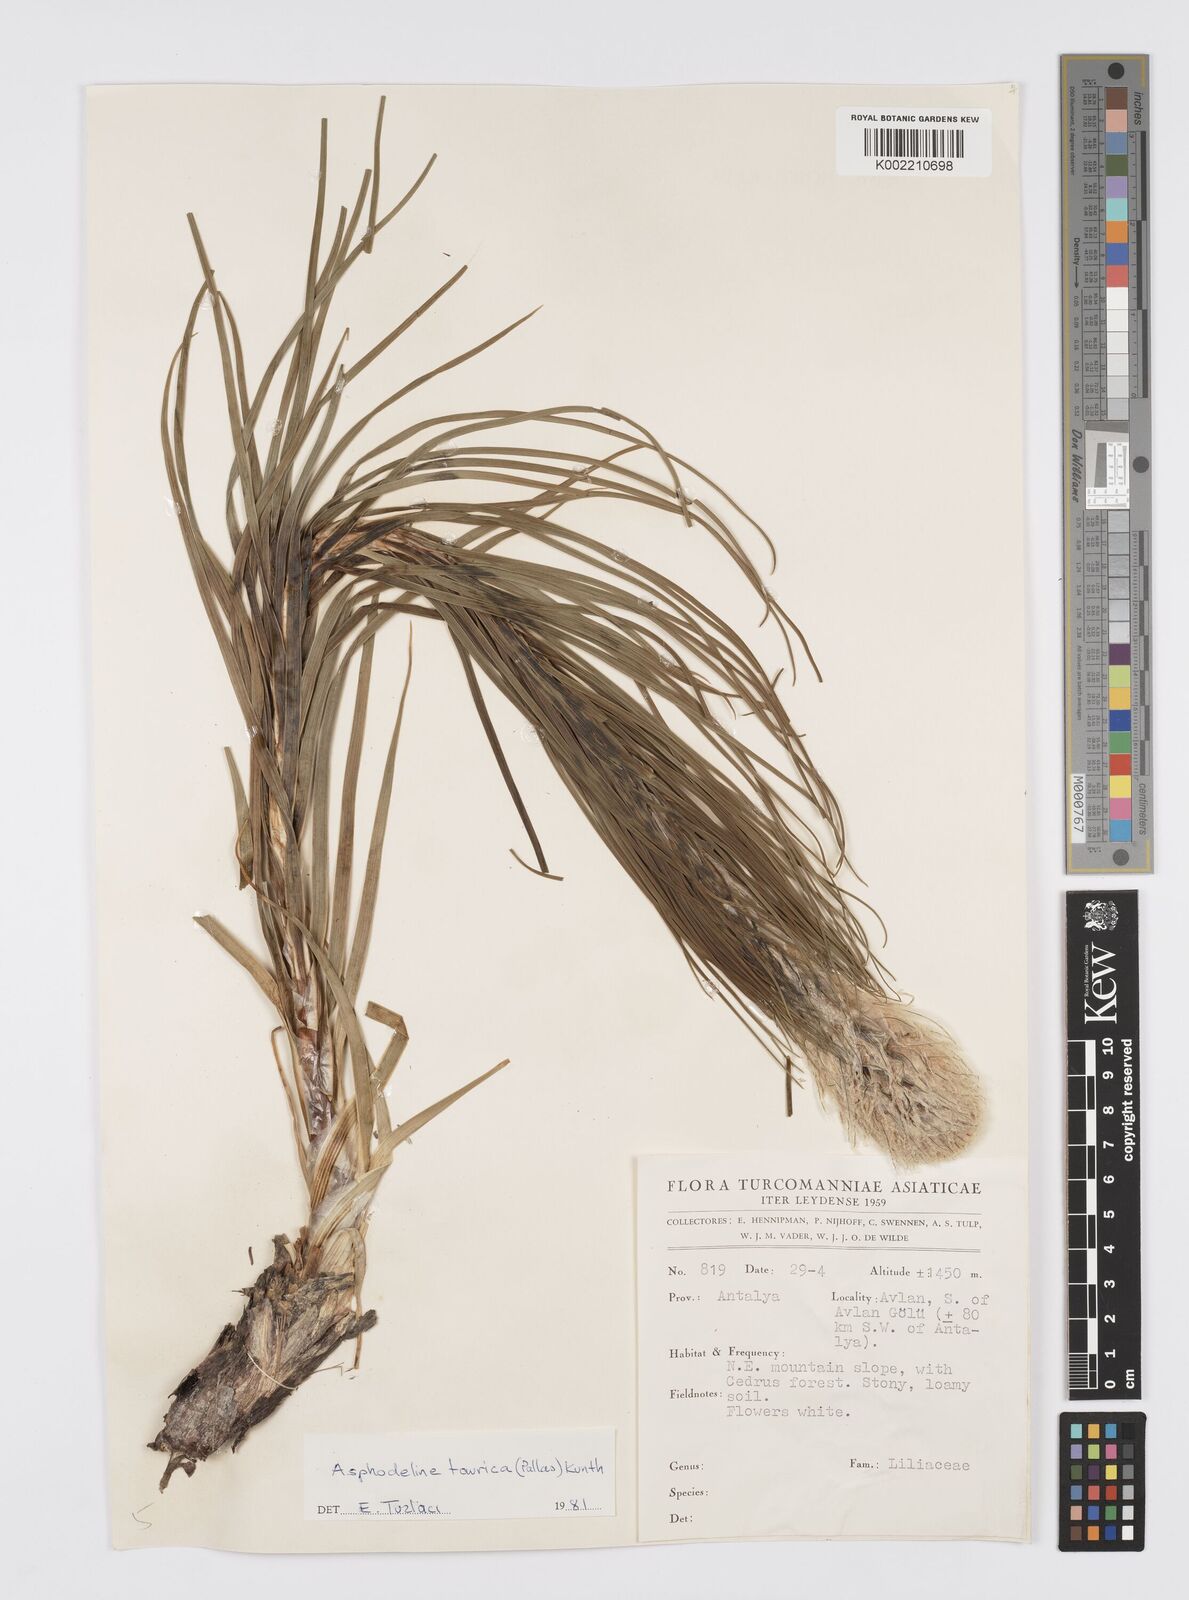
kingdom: Plantae
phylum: Tracheophyta
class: Liliopsida
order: Asparagales
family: Asphodelaceae
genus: Asphodeline
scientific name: Asphodeline taurica
